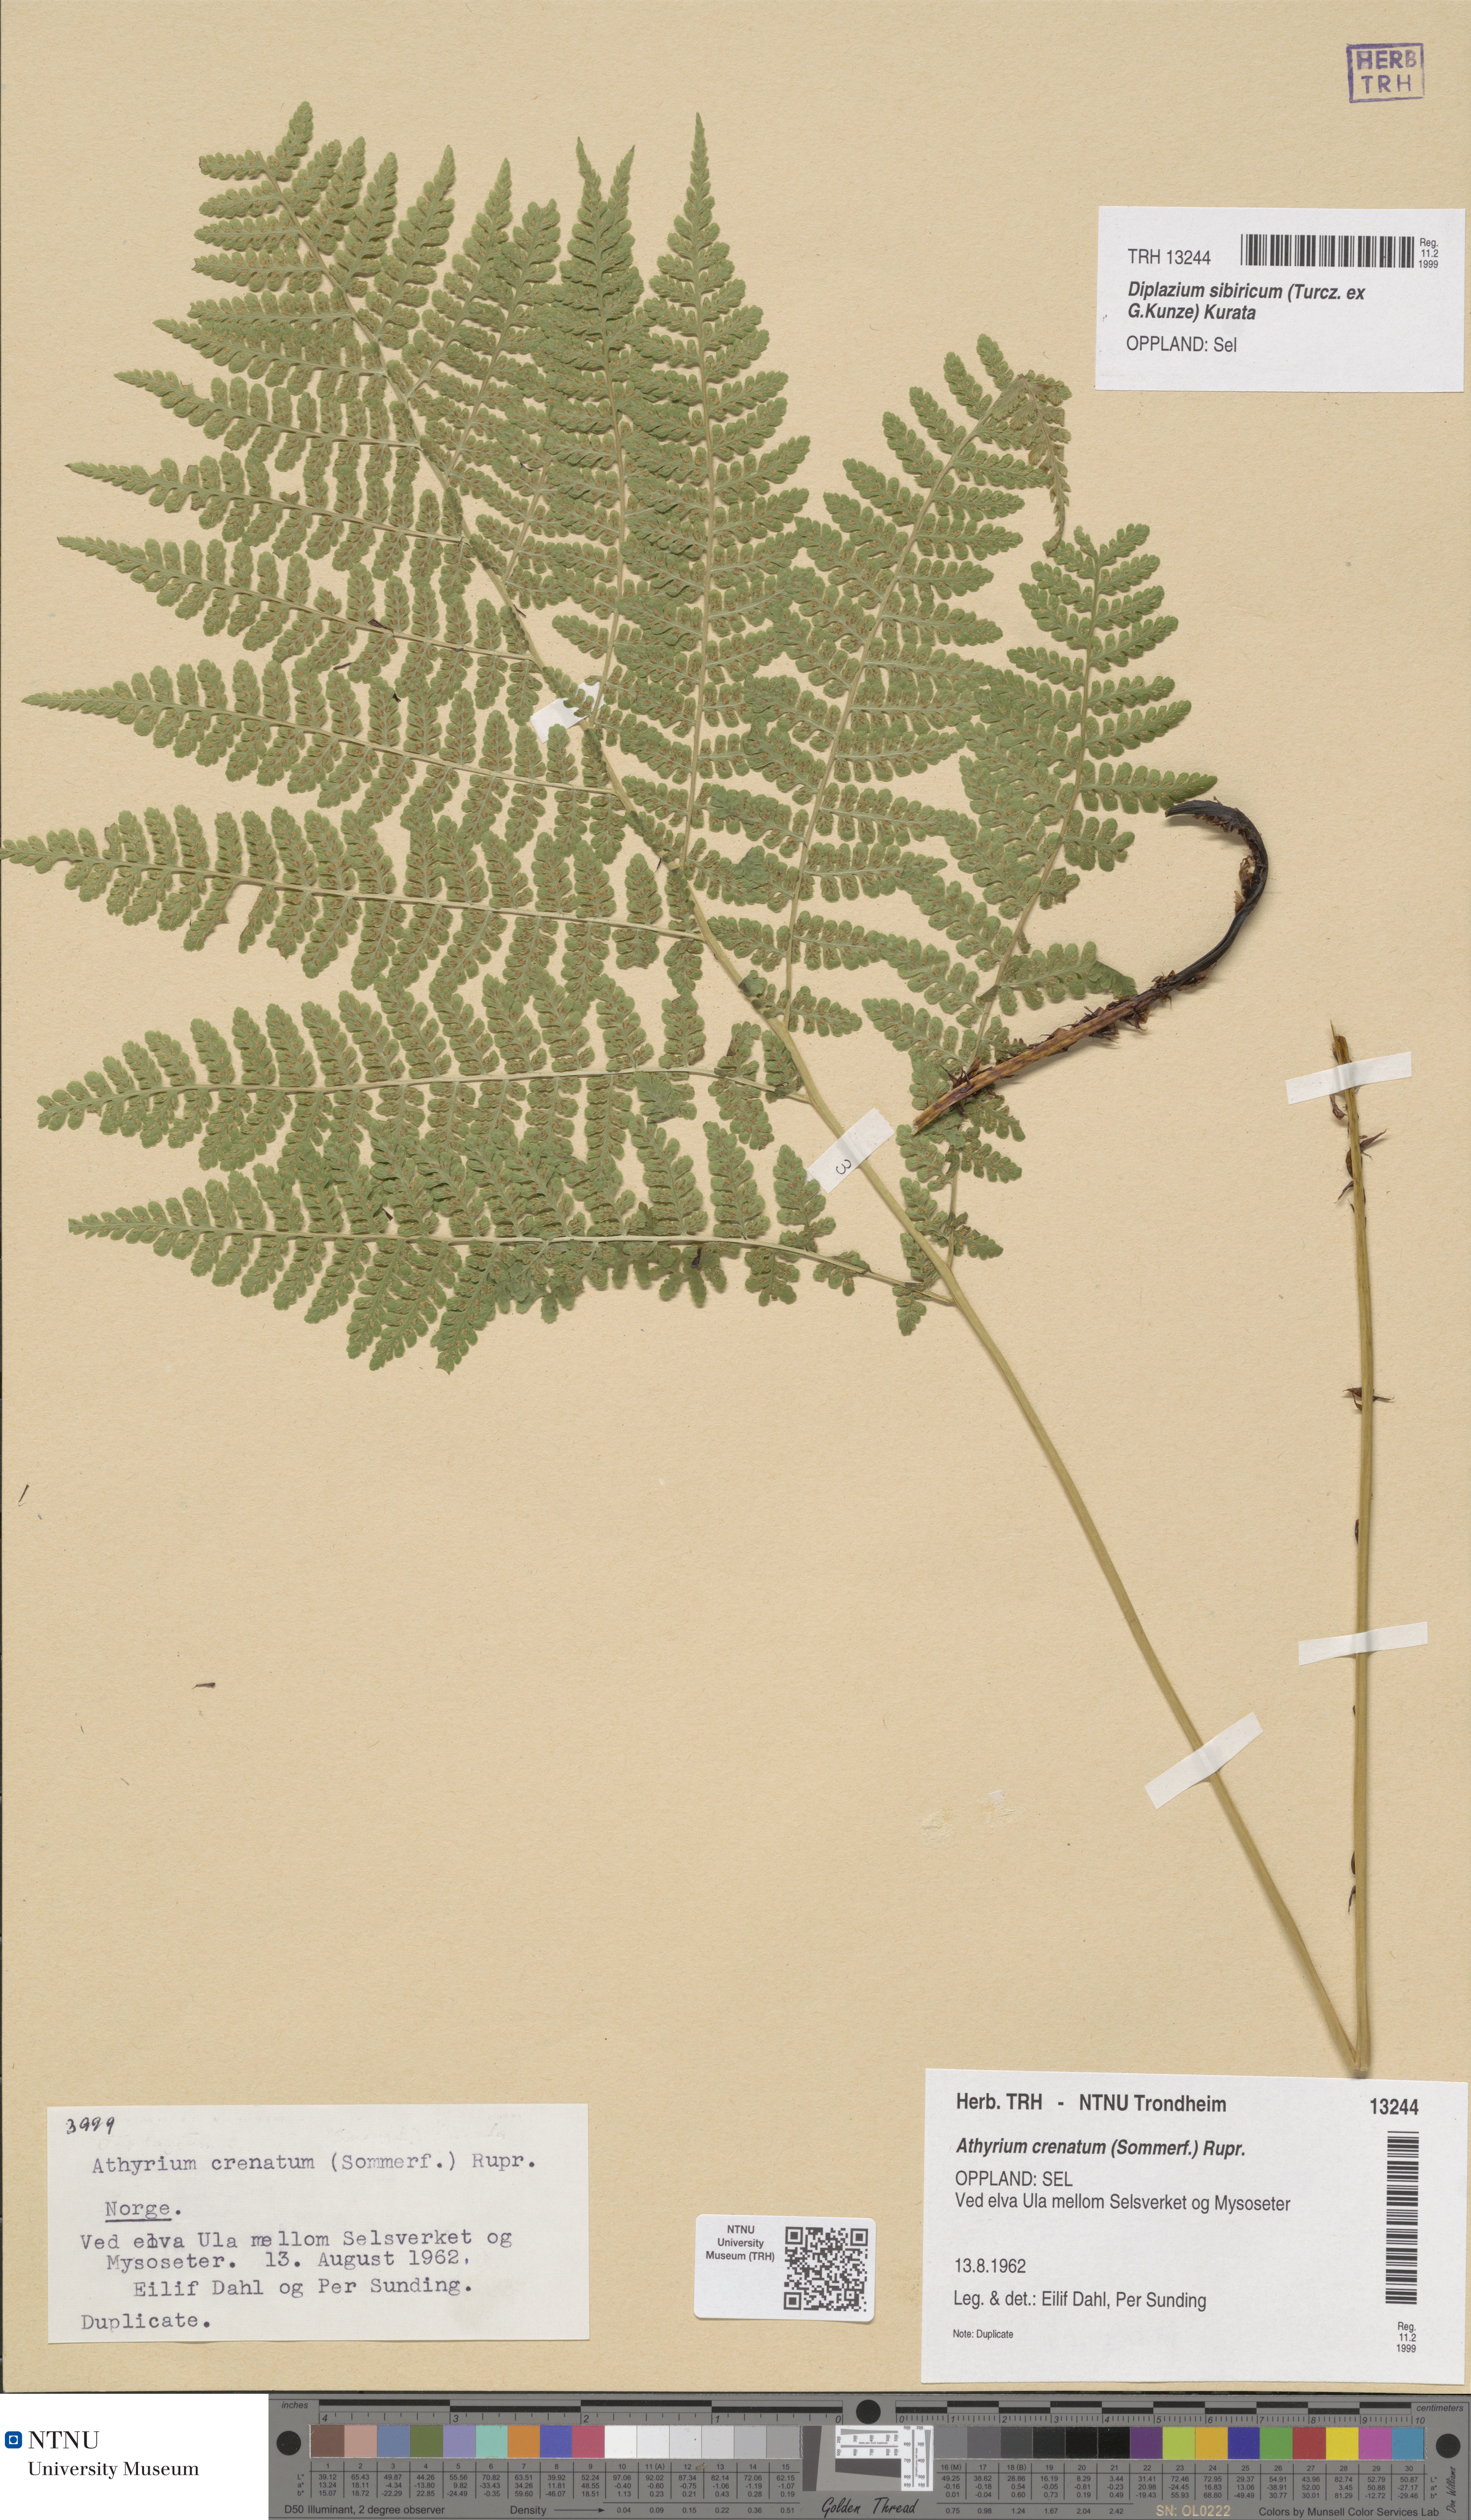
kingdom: Plantae
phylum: Tracheophyta
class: Polypodiopsida
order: Polypodiales
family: Athyriaceae
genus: Diplazium
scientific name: Diplazium sibiricum
